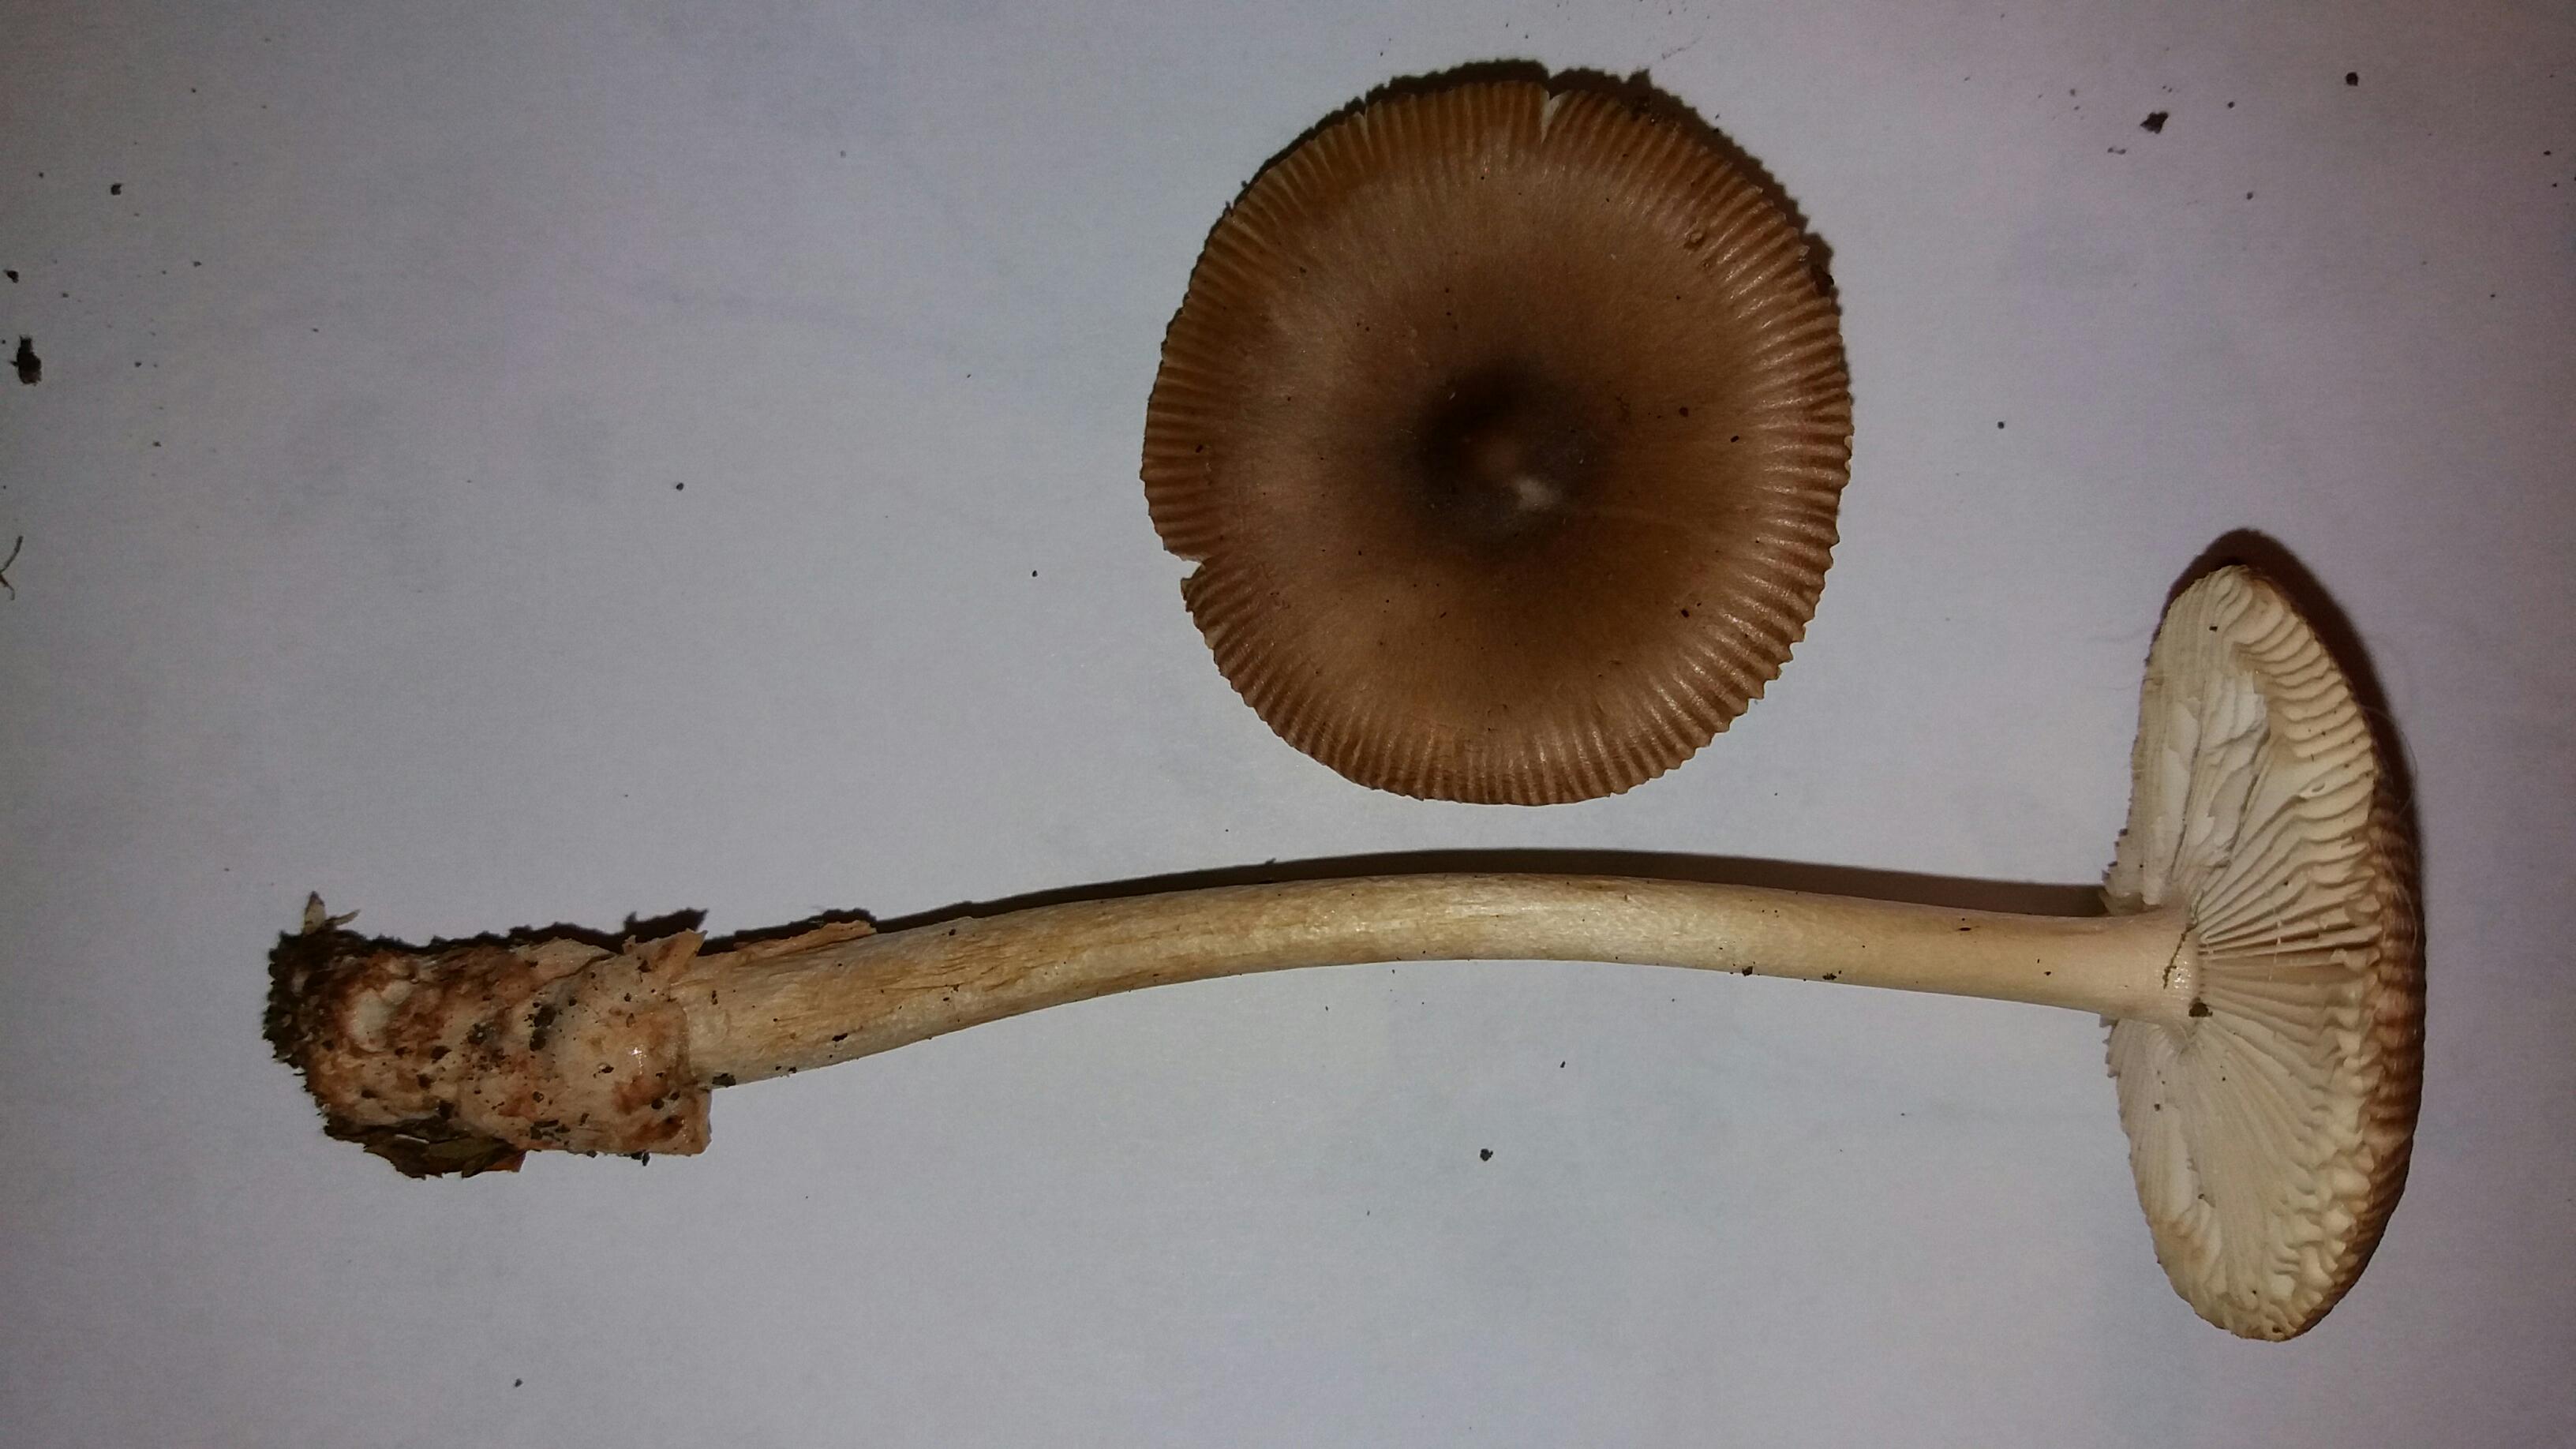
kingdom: Fungi
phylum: Basidiomycota
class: Agaricomycetes
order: Agaricales
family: Amanitaceae
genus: Amanita
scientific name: Amanita fulva
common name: brun kam-fluesvamp
